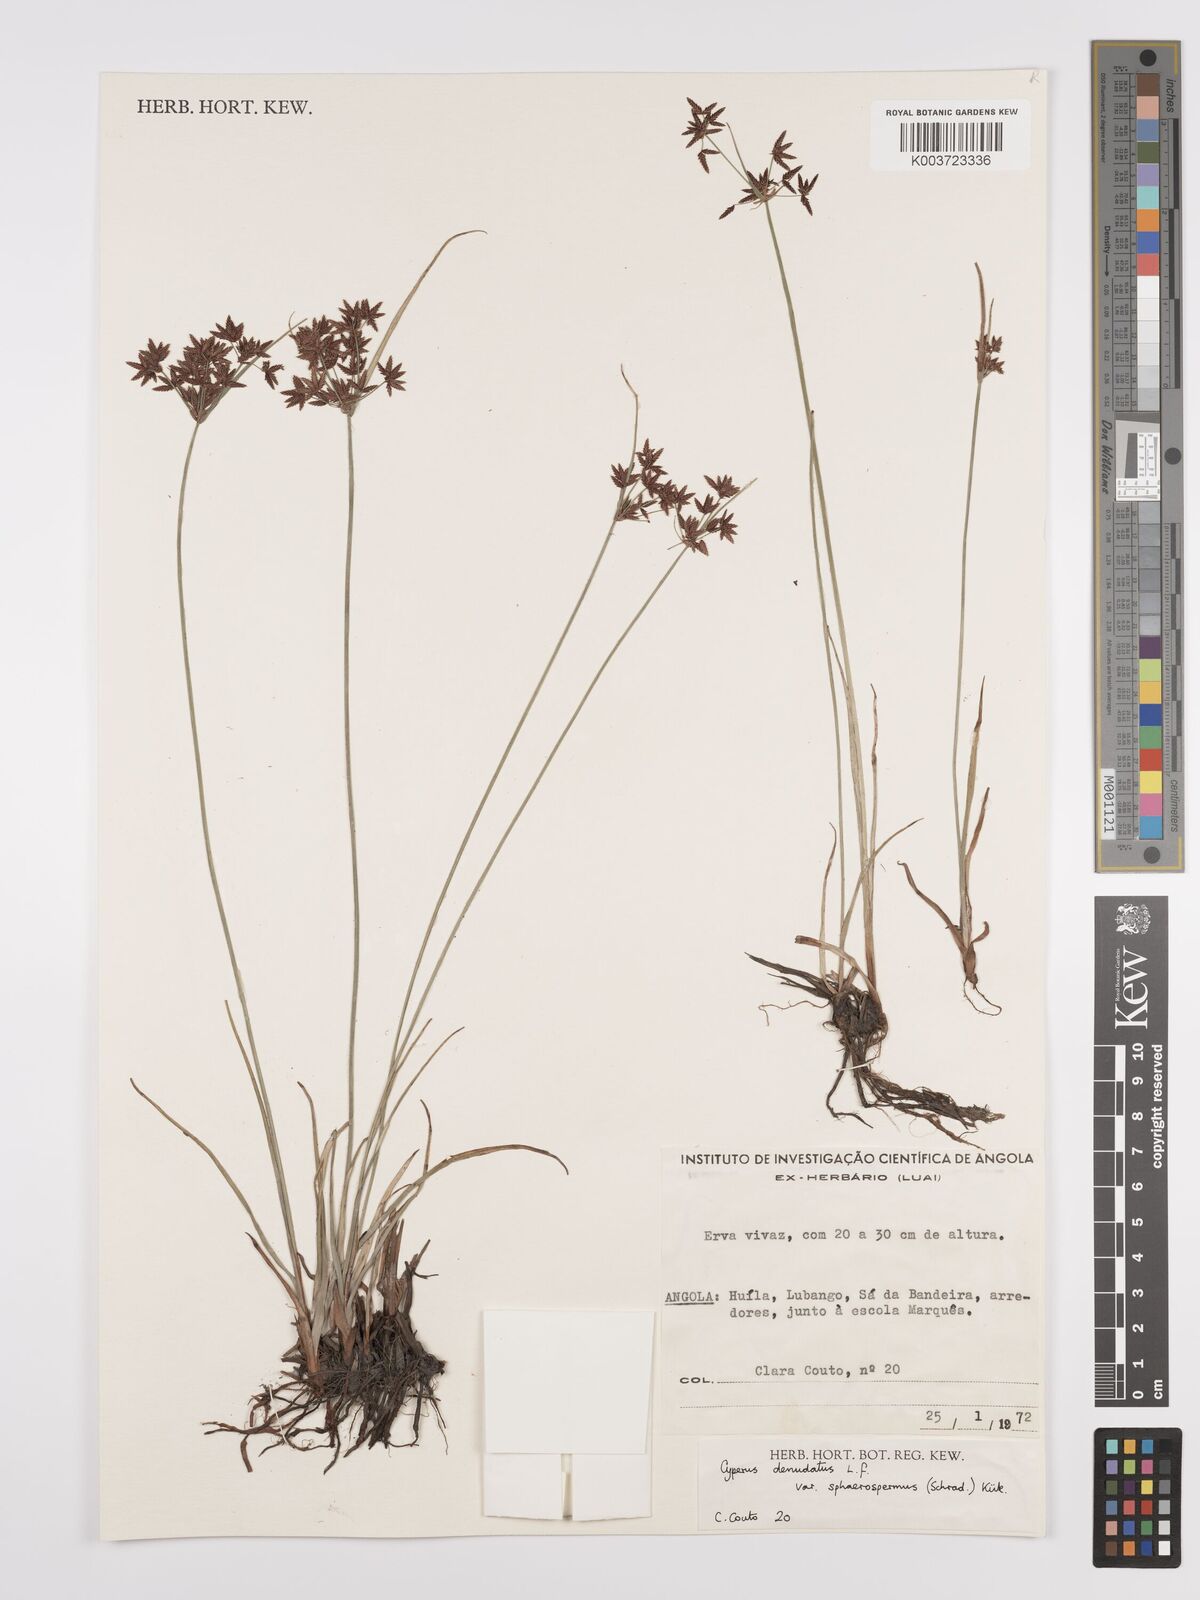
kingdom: Plantae
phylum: Tracheophyta
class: Liliopsida
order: Poales
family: Cyperaceae
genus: Cyperus
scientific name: Cyperus denudatus
